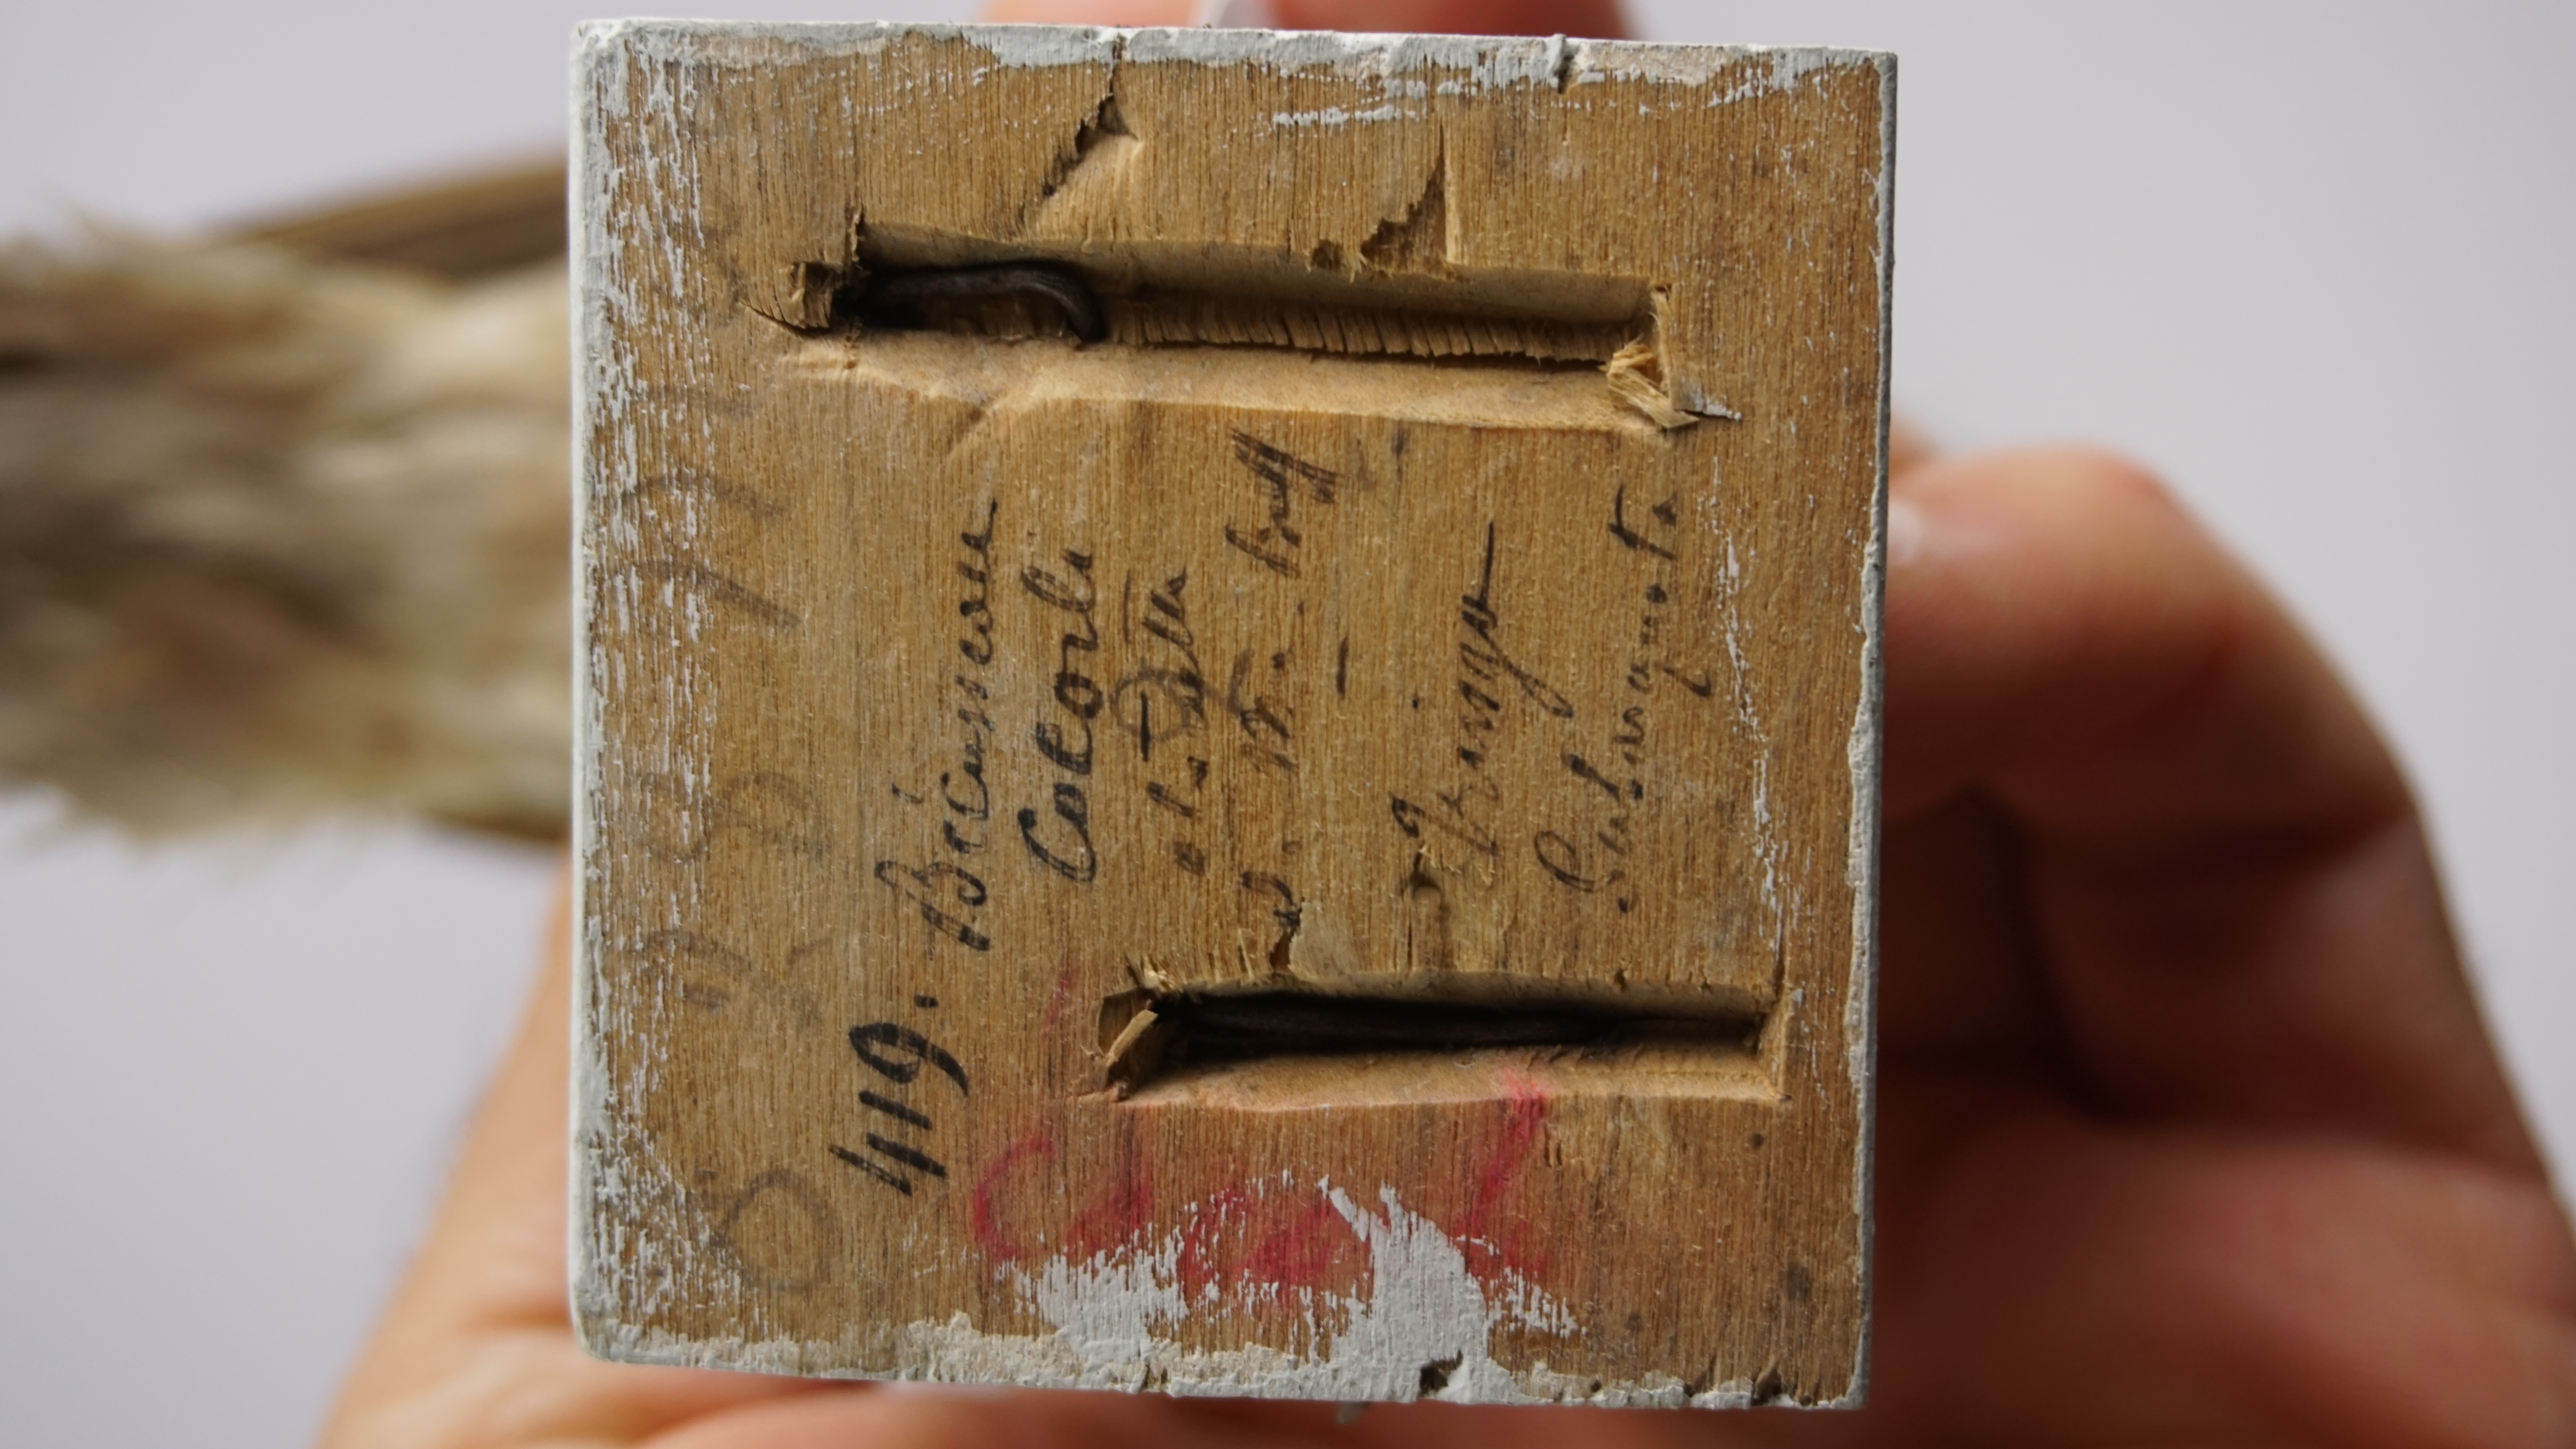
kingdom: Animalia
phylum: Chordata
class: Aves
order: Charadriiformes
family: Scolopacidae
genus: Calidris
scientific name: Calidris ferruginea
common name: Curlew sandpiper
